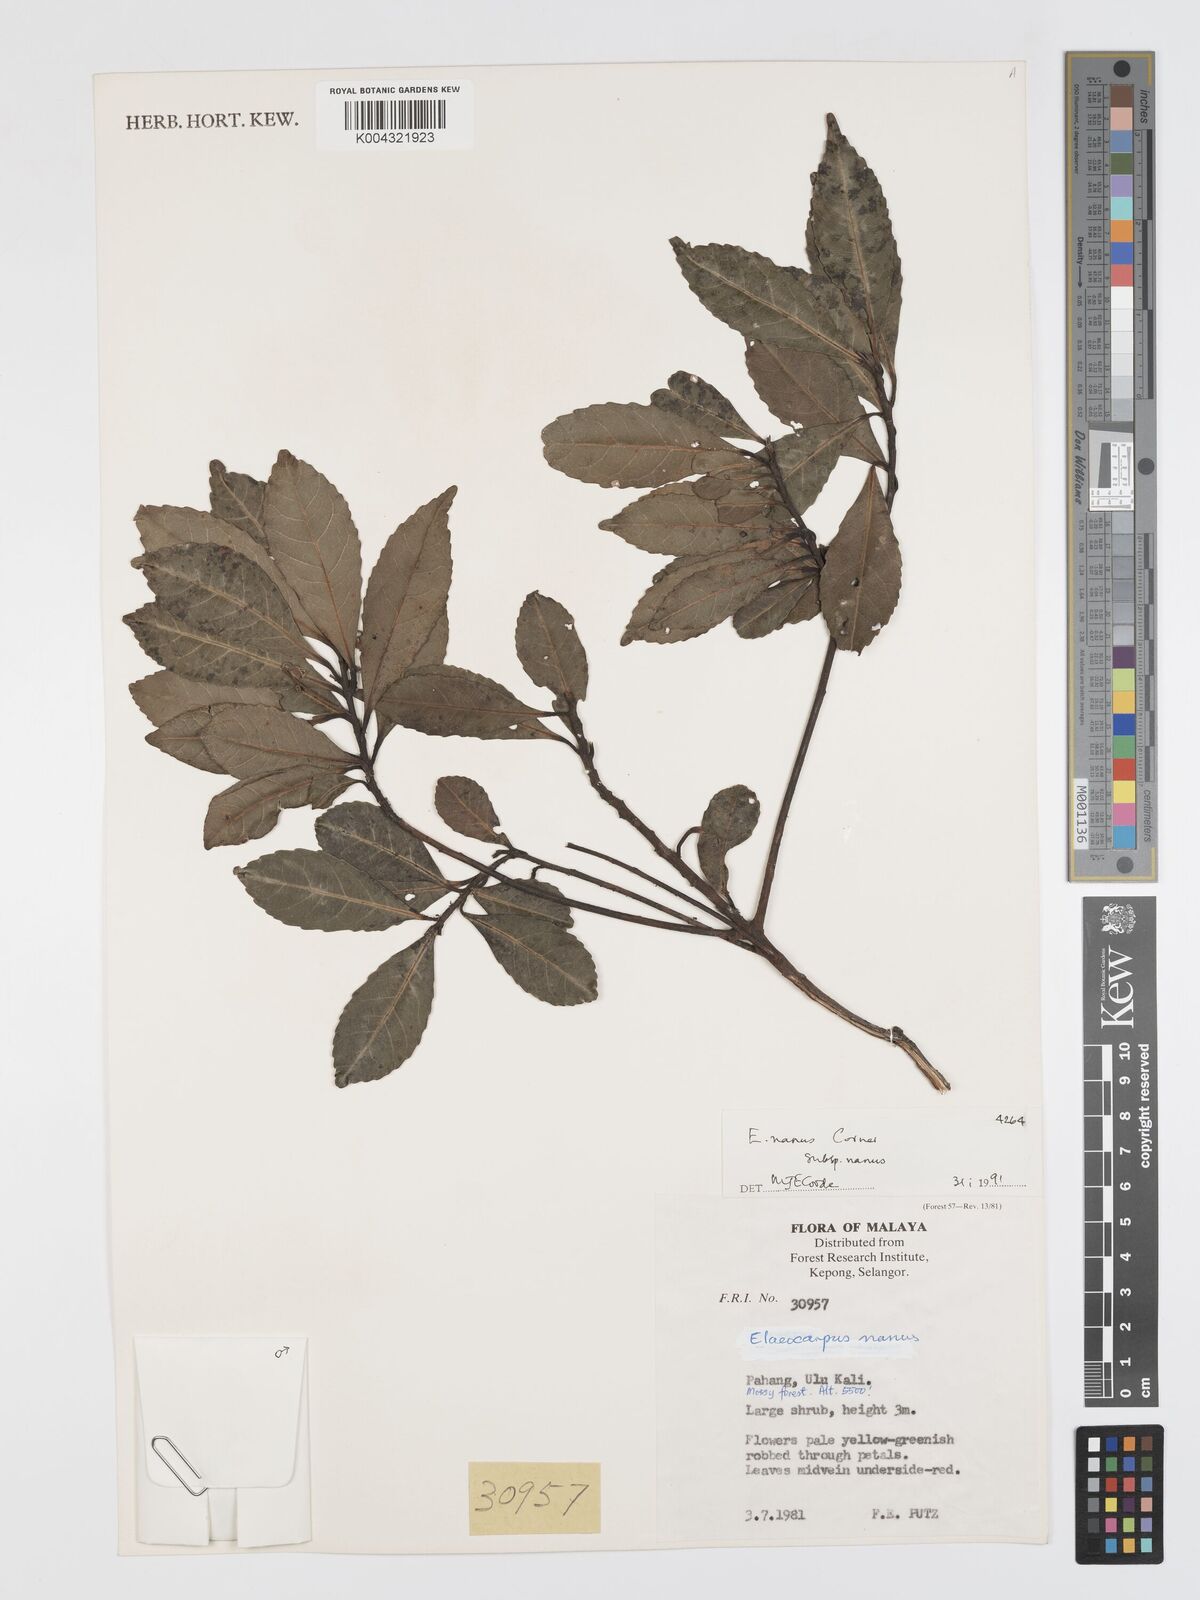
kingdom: Plantae
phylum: Tracheophyta
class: Magnoliopsida
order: Oxalidales
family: Elaeocarpaceae
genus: Elaeocarpus
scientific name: Elaeocarpus nanus
